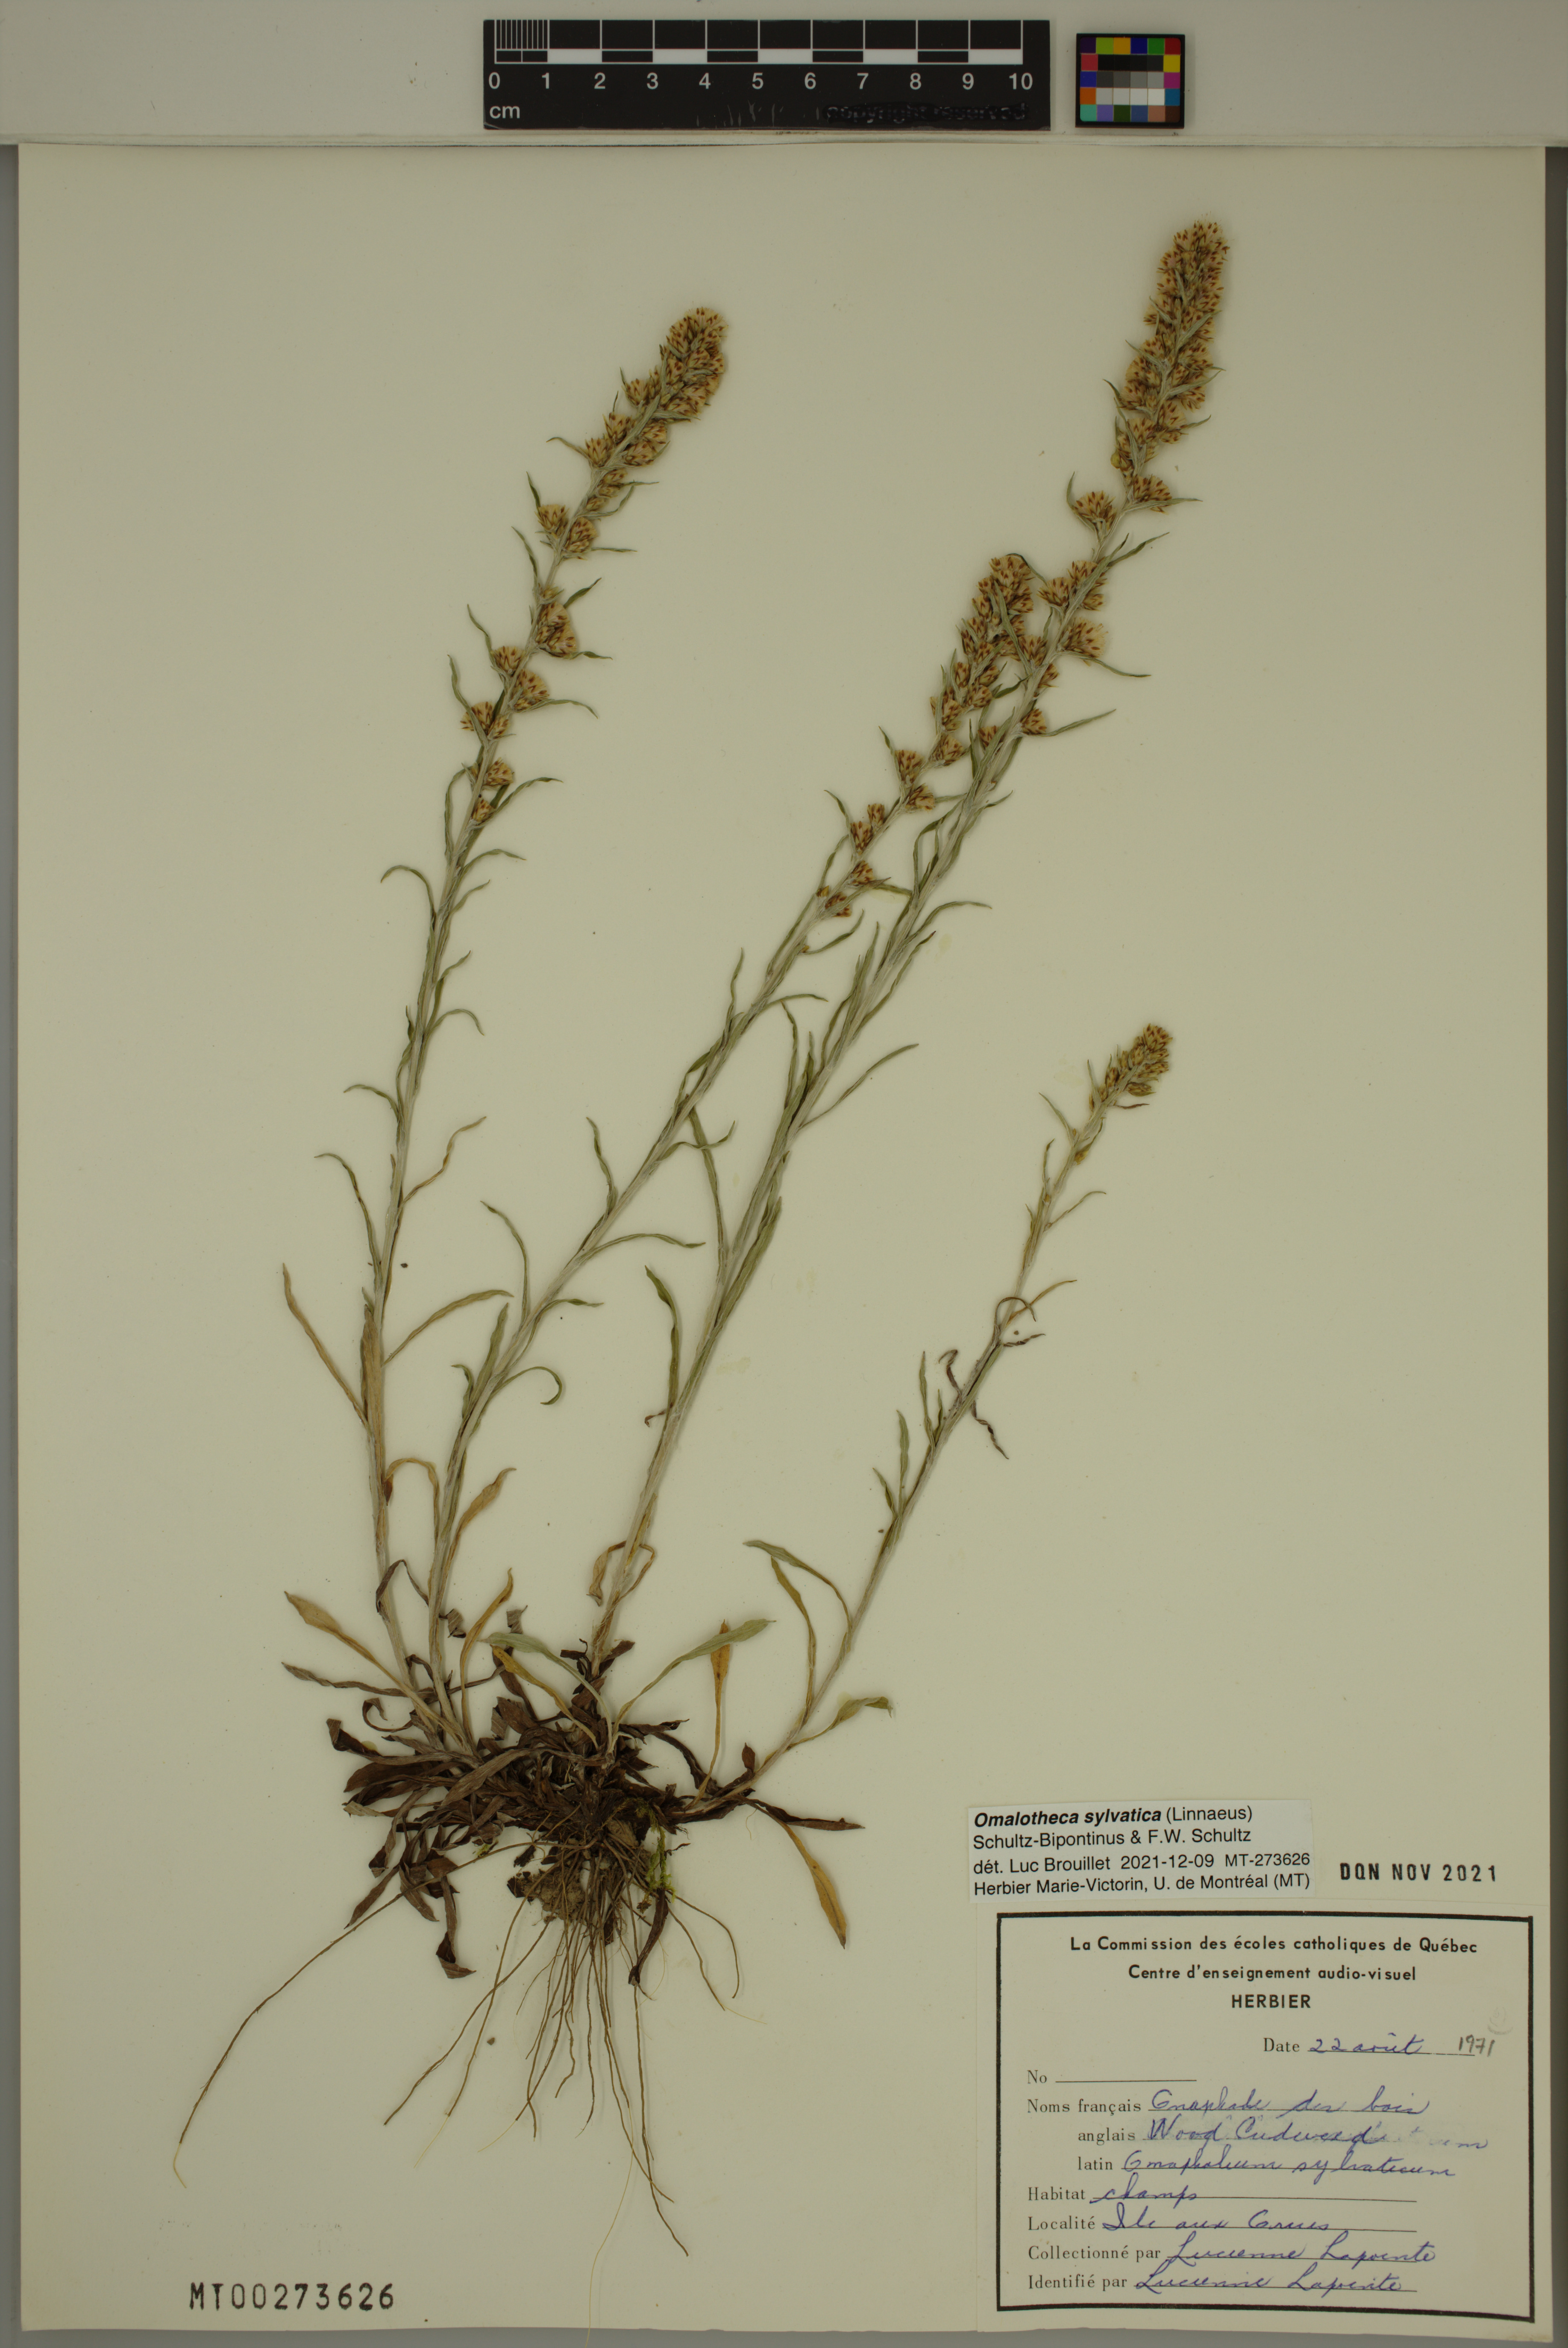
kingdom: Plantae
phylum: Tracheophyta
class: Magnoliopsida
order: Asterales
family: Asteraceae
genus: Omalotheca
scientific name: Omalotheca sylvatica
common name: Heath cudweed
